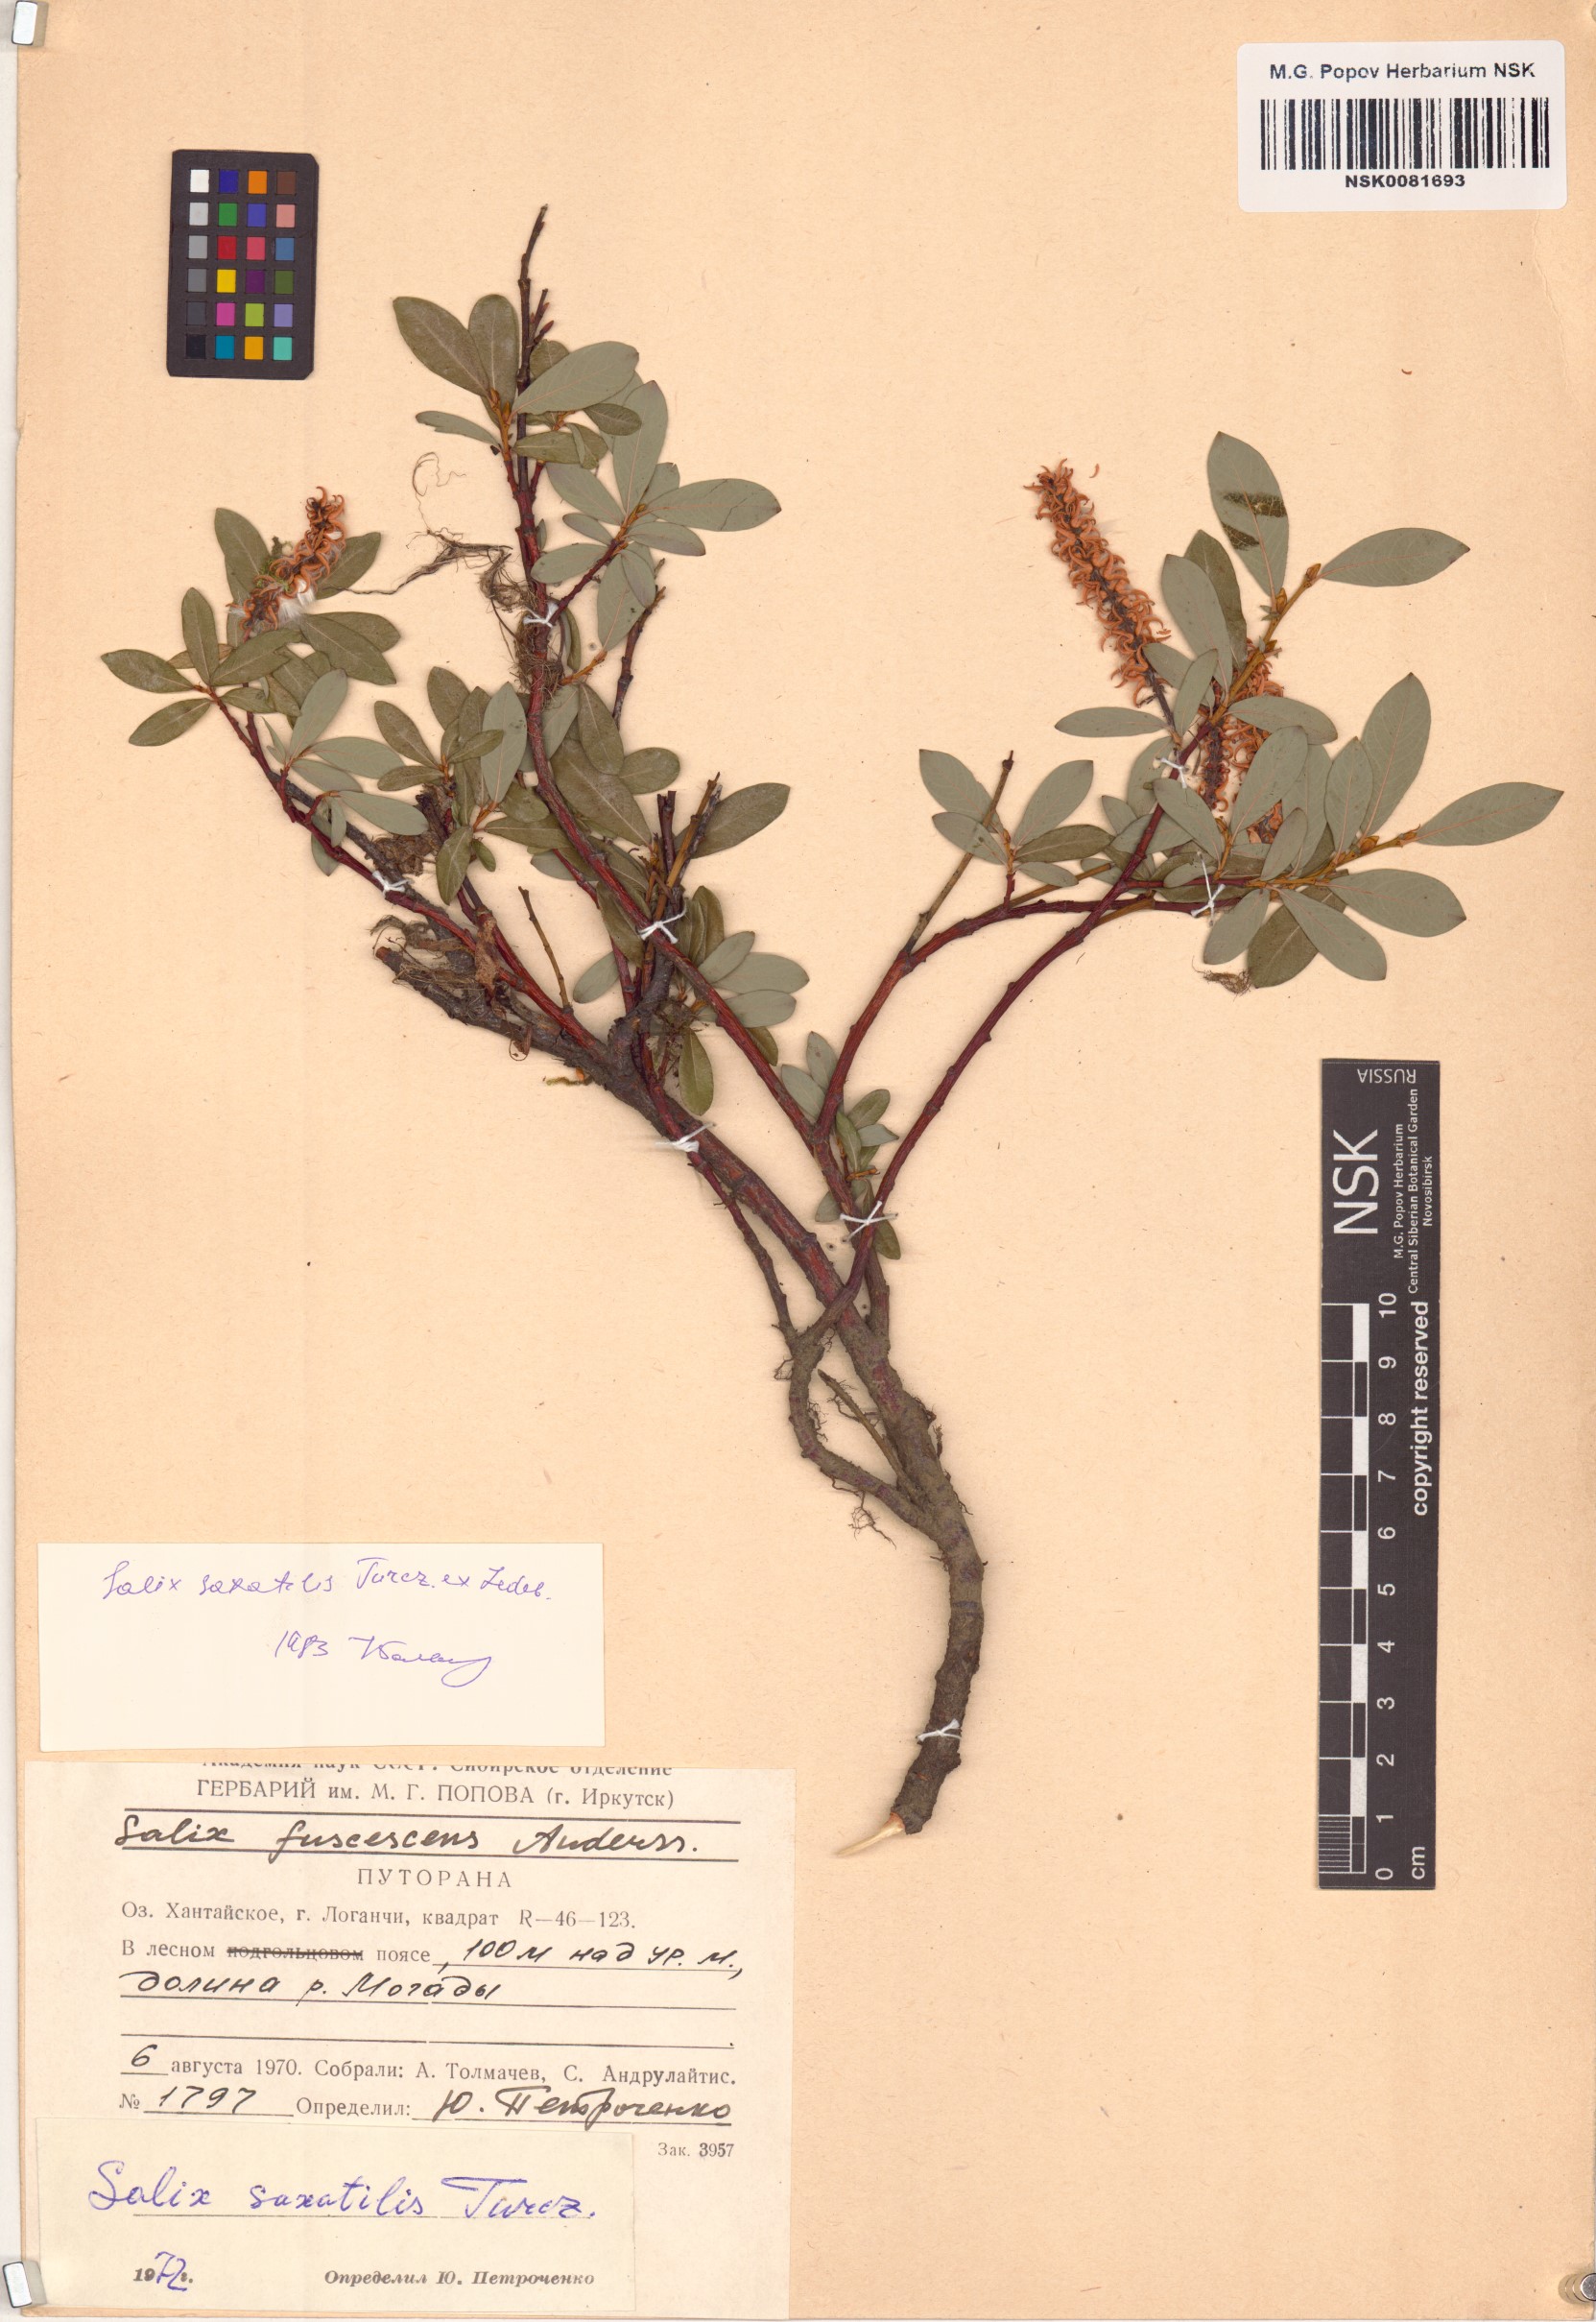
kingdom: Plantae
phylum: Tracheophyta
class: Magnoliopsida
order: Malpighiales
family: Salicaceae
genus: Salix
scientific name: Salix saxatilis
